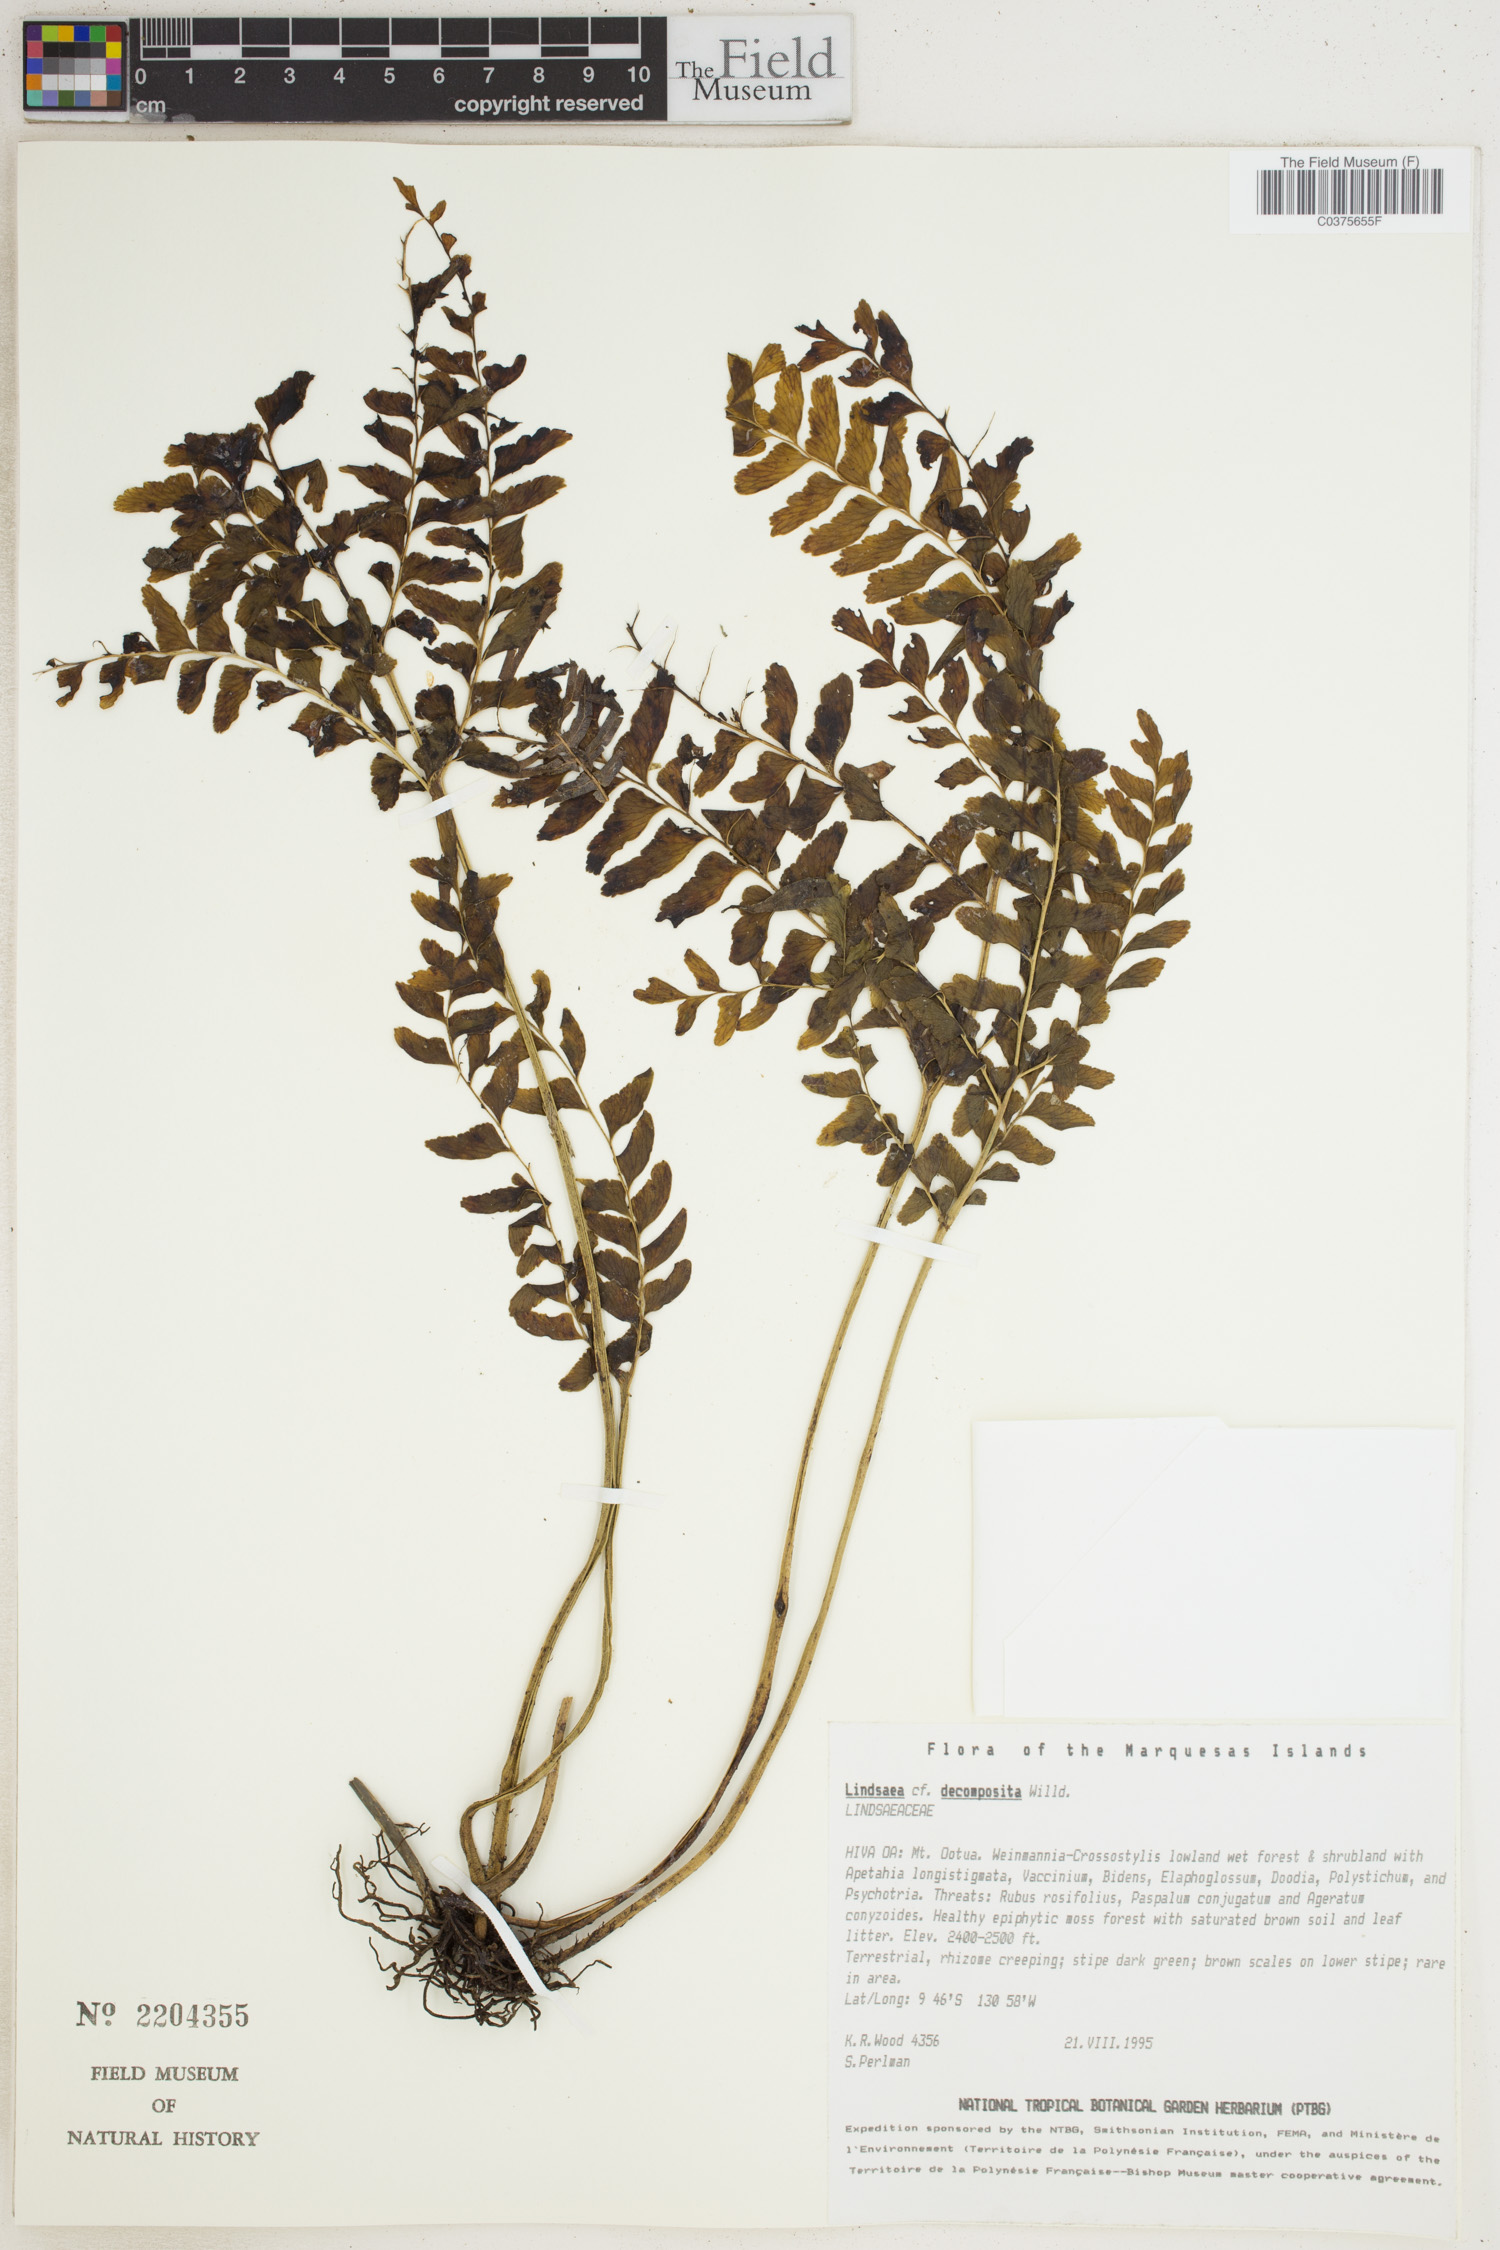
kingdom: Plantae
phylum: Tracheophyta
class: Polypodiopsida
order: Polypodiales
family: Lindsaeaceae
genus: Lindsaea
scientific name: Lindsaea cultrata
